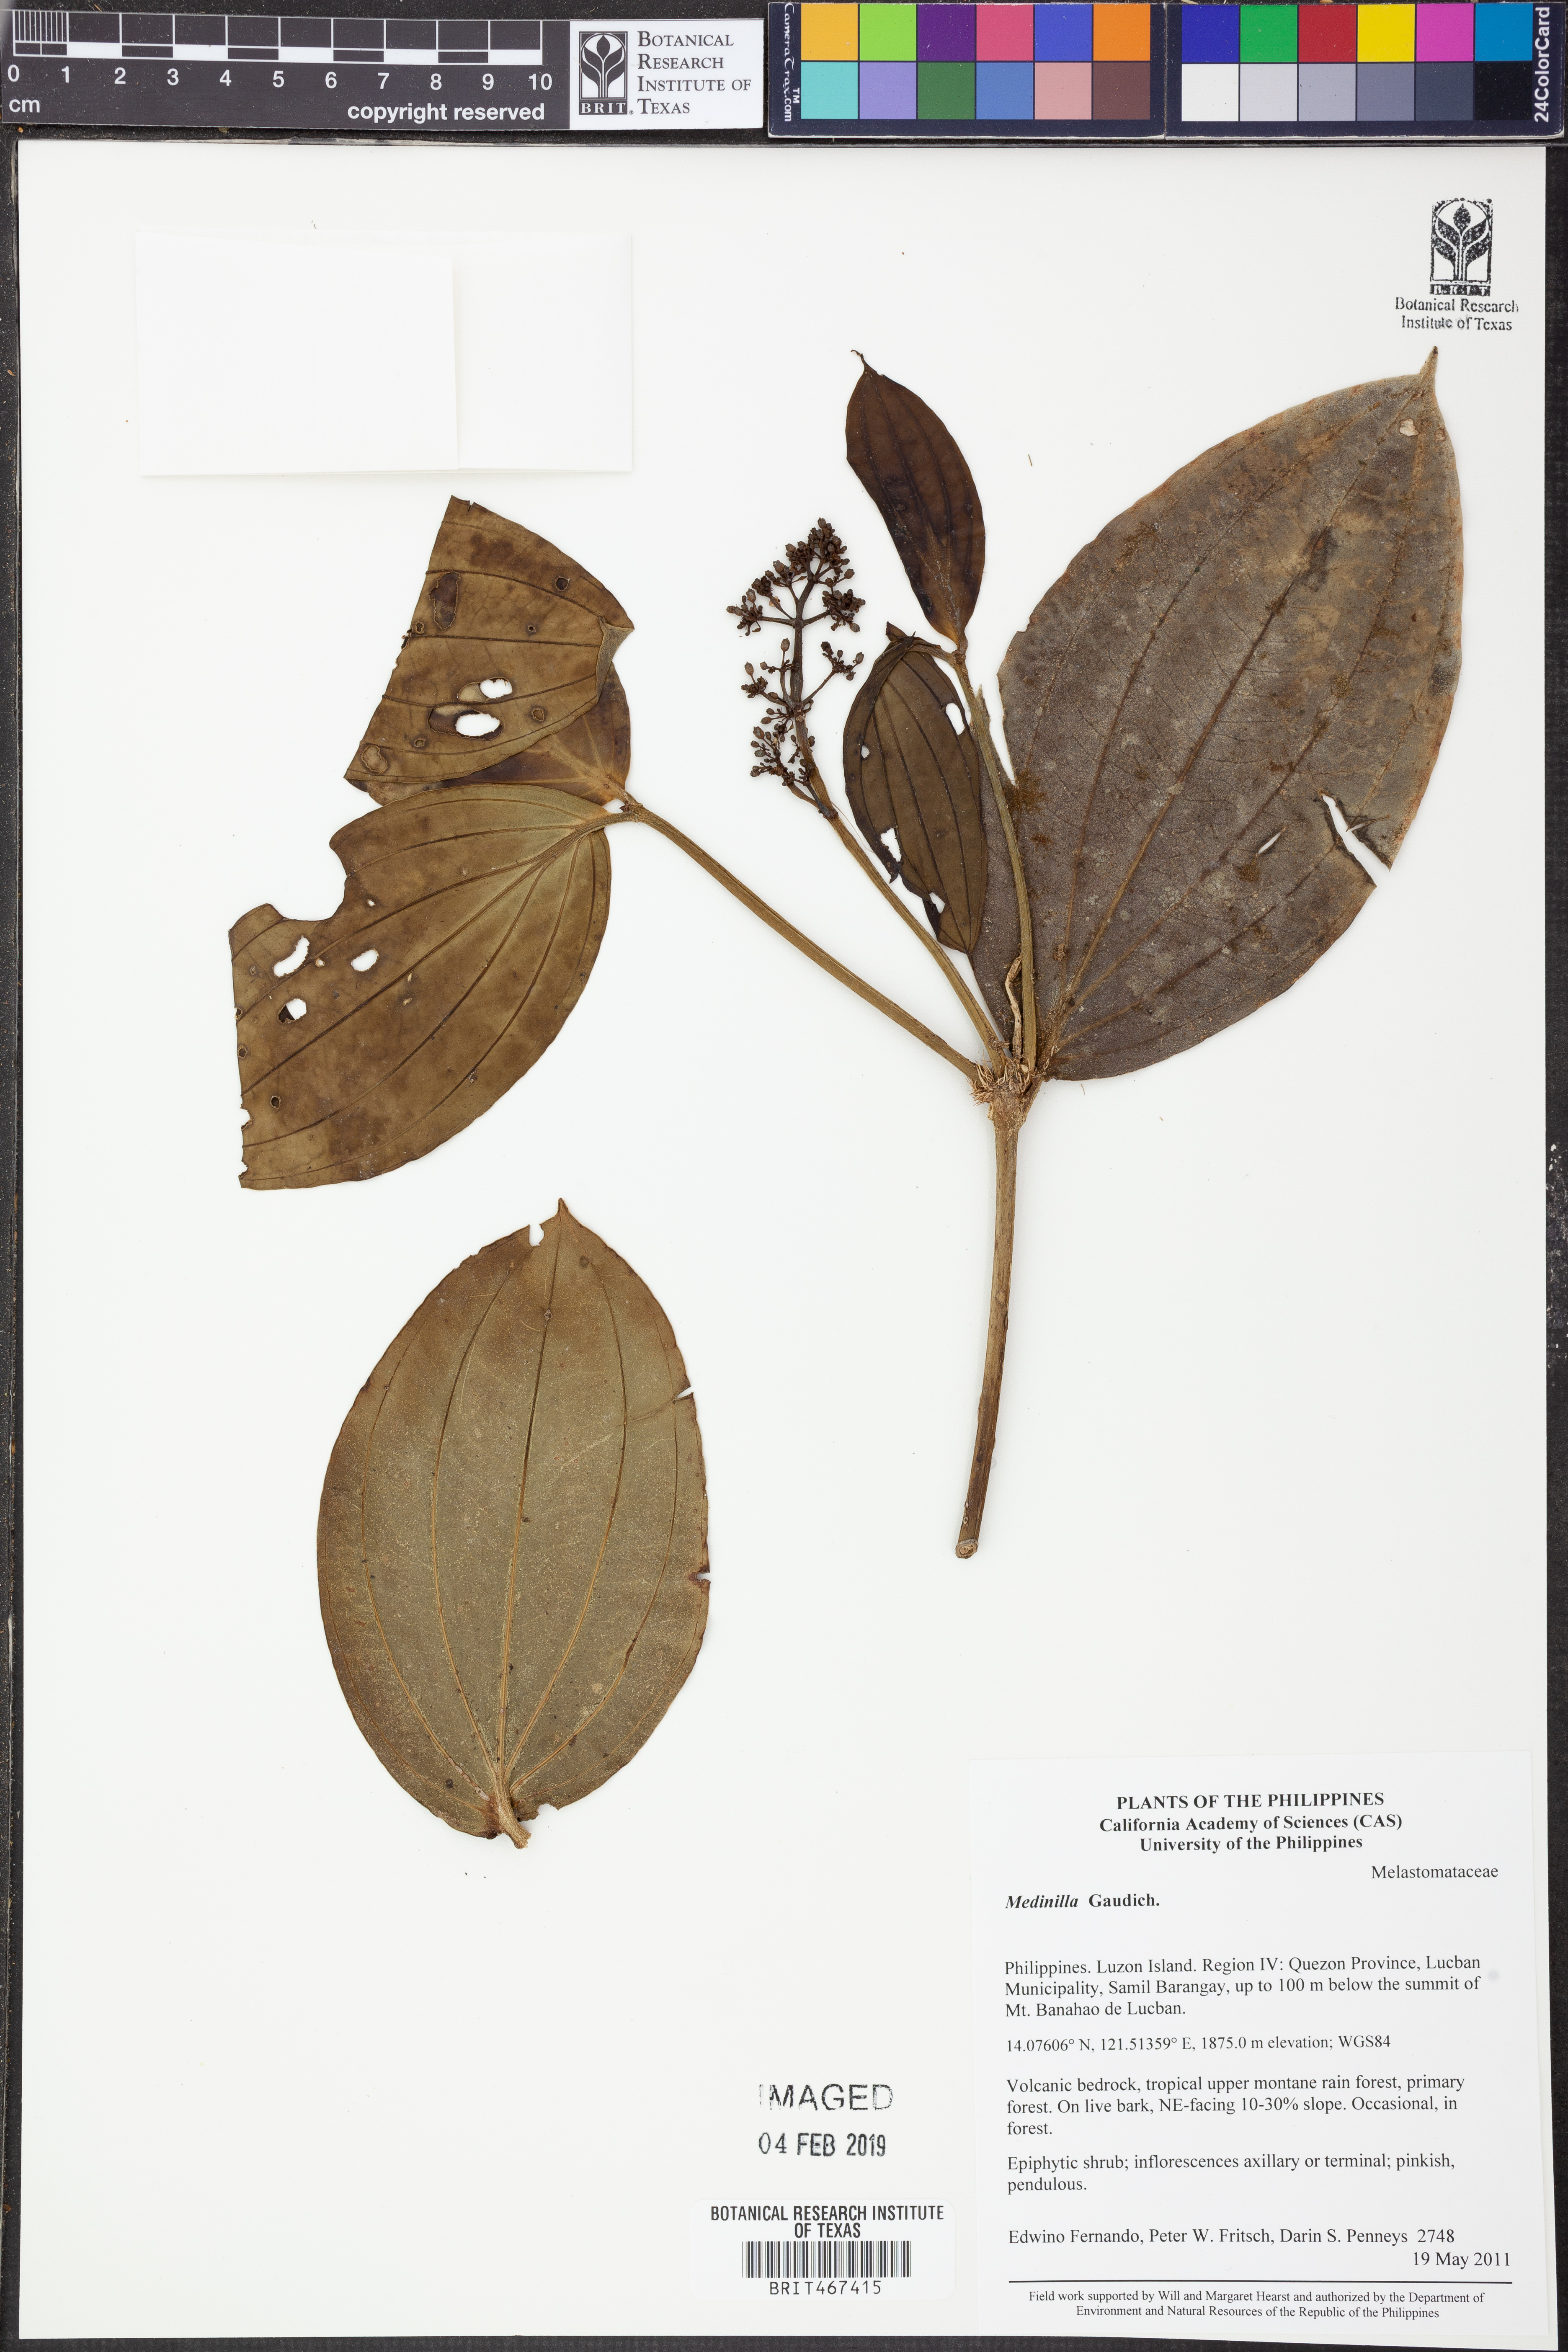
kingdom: Plantae
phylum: Tracheophyta
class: Magnoliopsida
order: Myrtales
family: Melastomataceae
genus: Medinilla
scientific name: Medinilla
